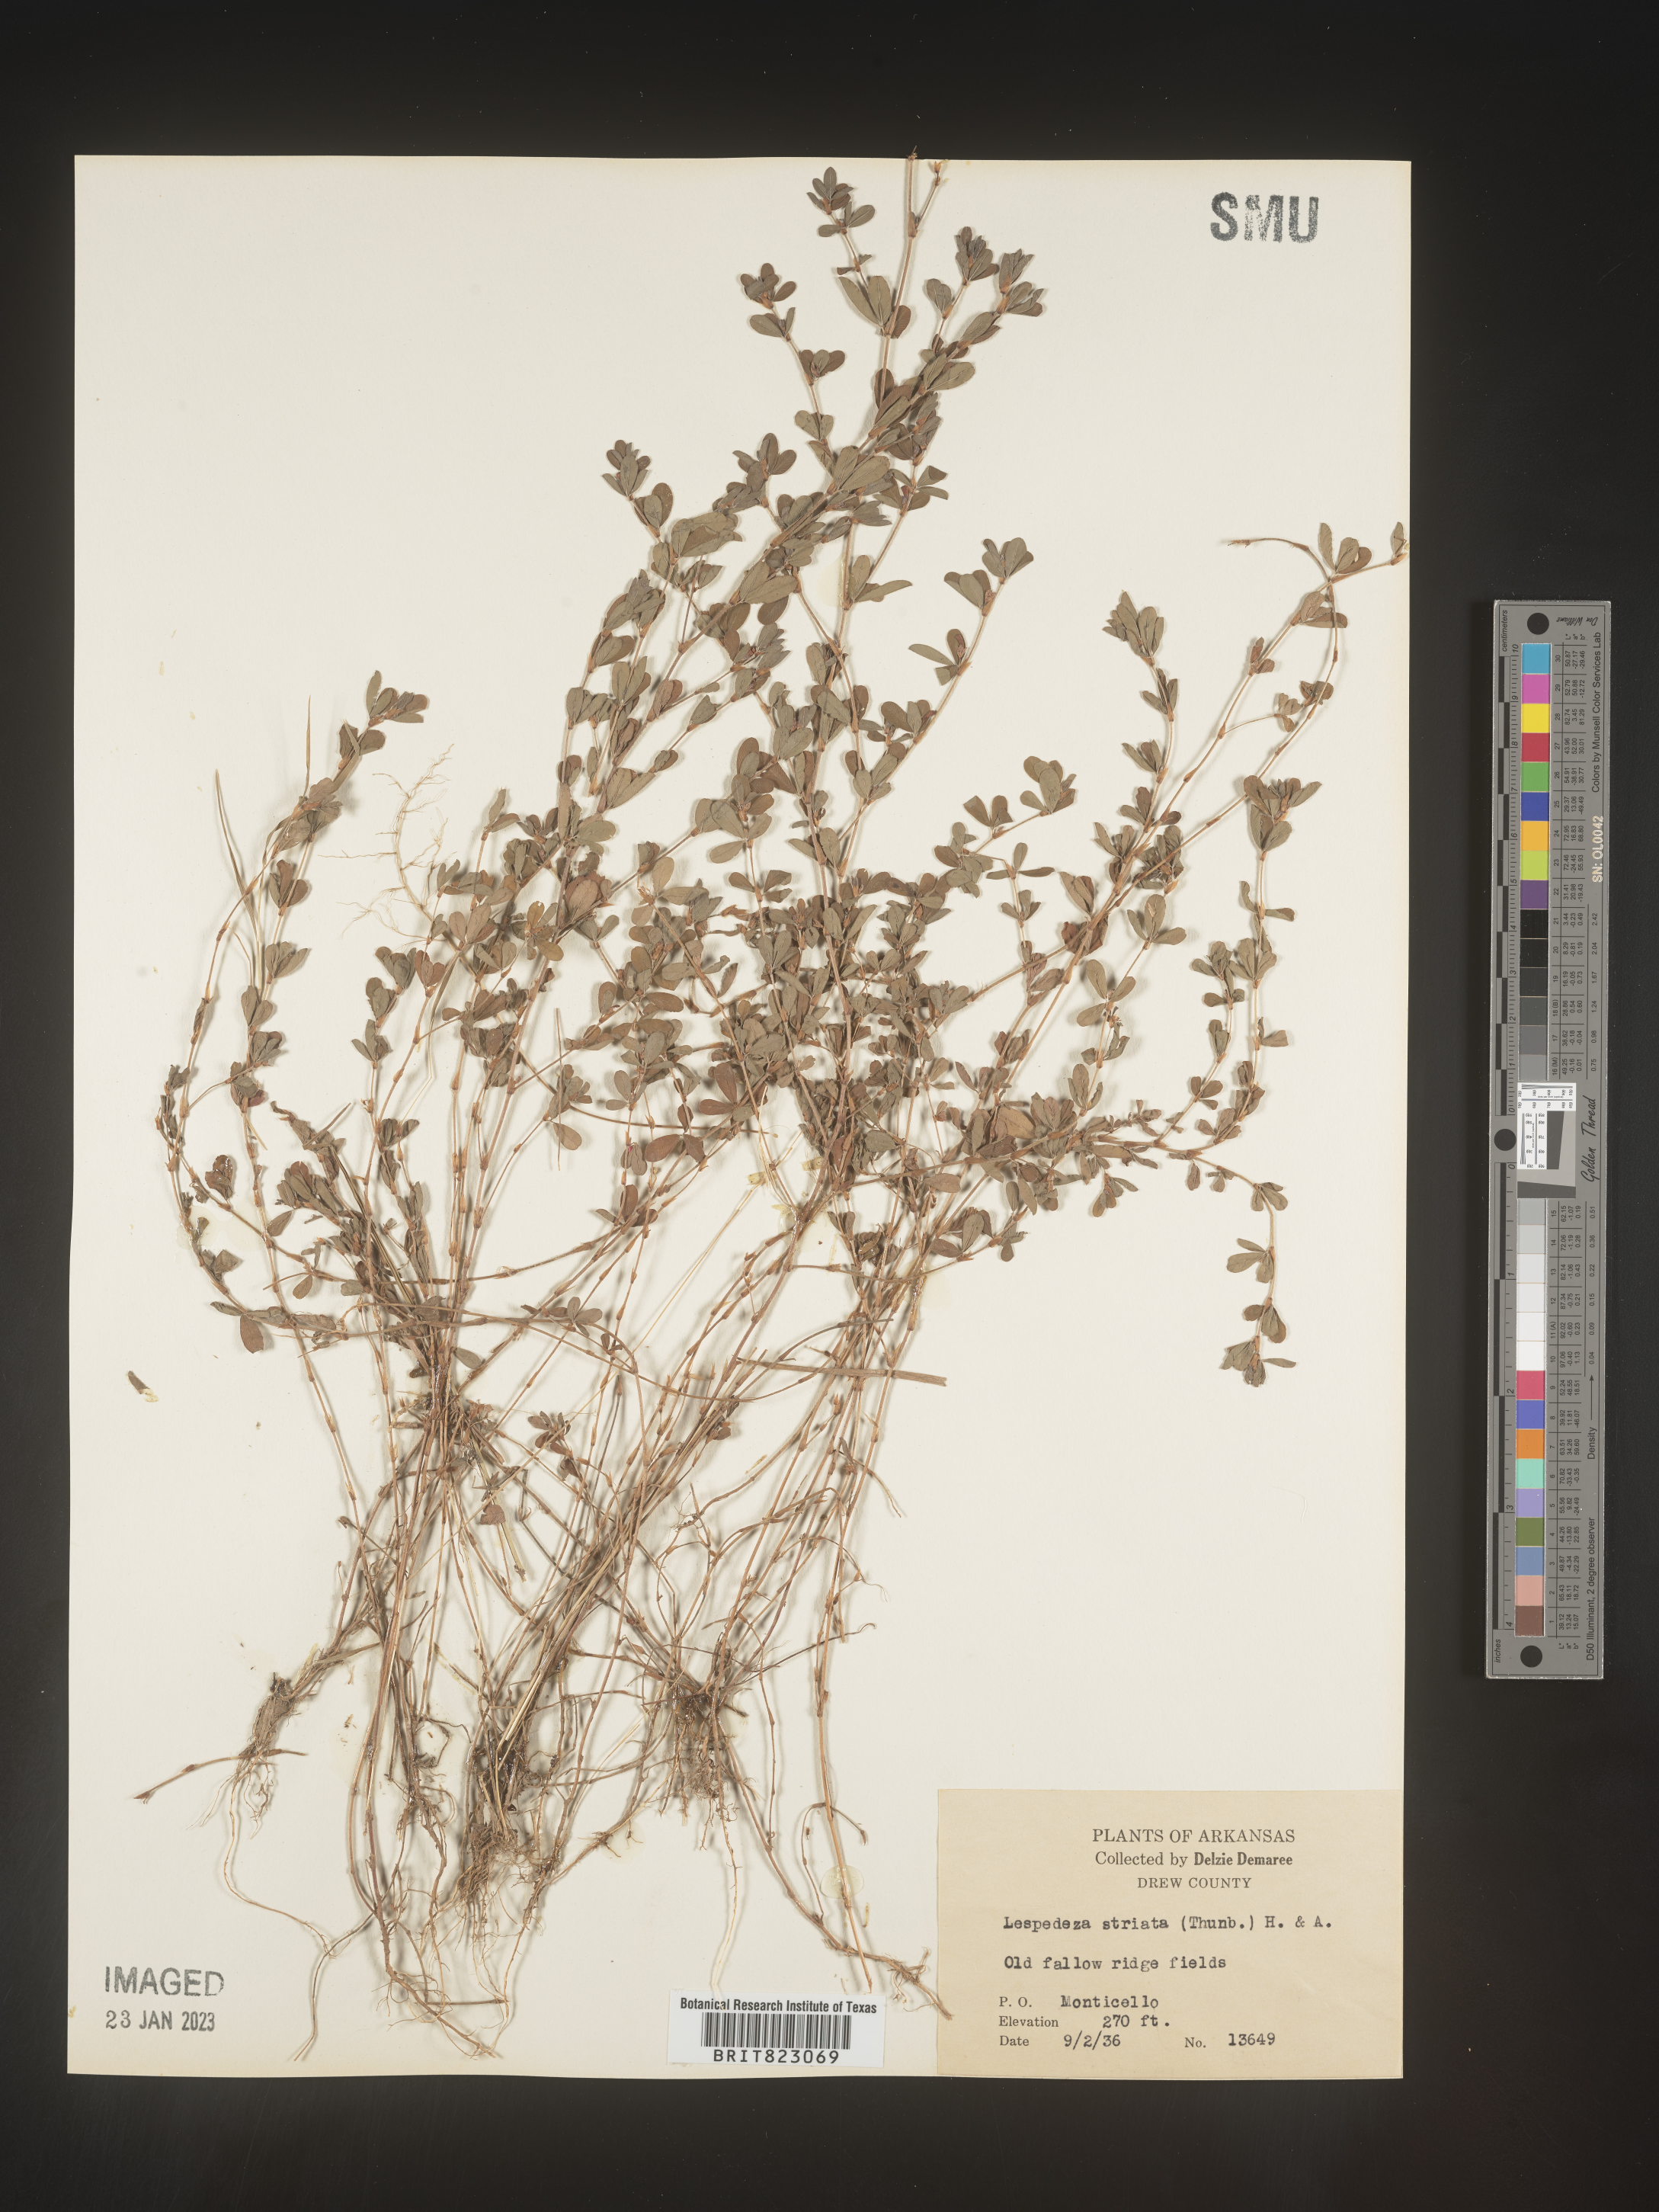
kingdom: Plantae
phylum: Tracheophyta
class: Magnoliopsida
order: Fabales
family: Fabaceae
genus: Kummerowia
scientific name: Kummerowia striata
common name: Japanese clover
